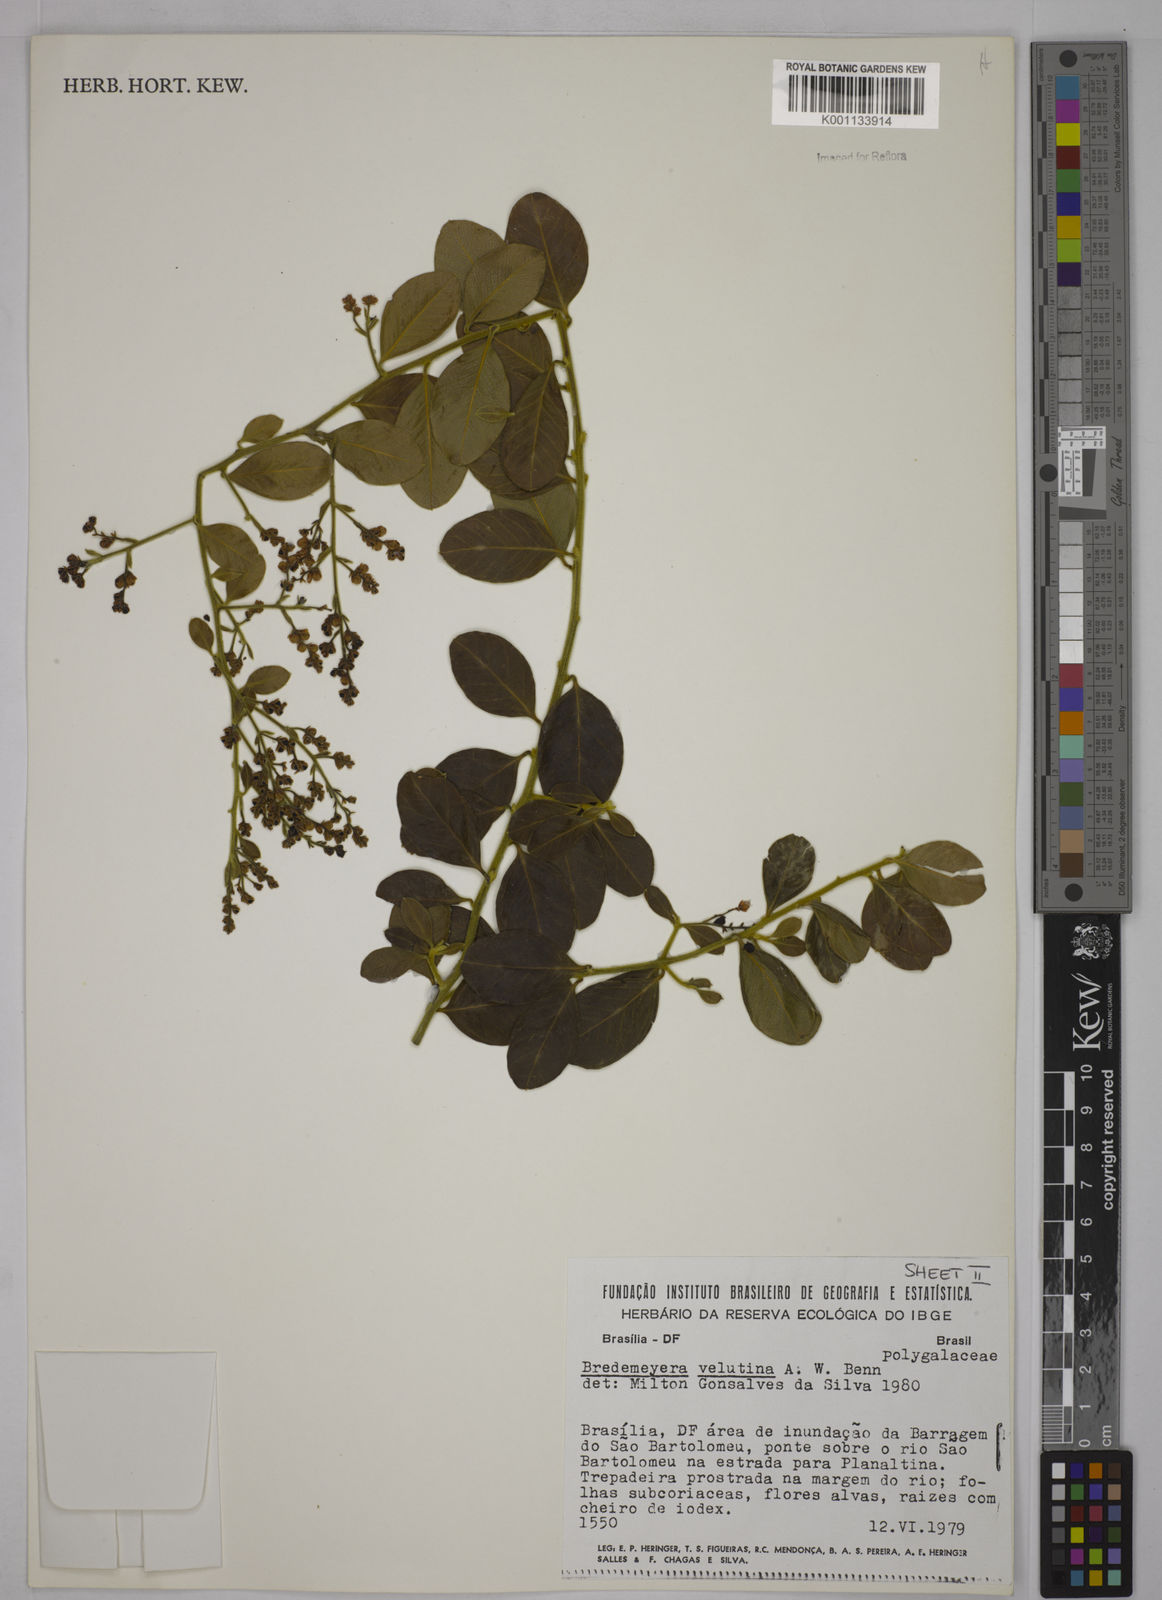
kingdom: Plantae
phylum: Tracheophyta
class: Magnoliopsida
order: Fabales
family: Polygalaceae
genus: Bredemeyera
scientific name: Bredemeyera hebeclada
